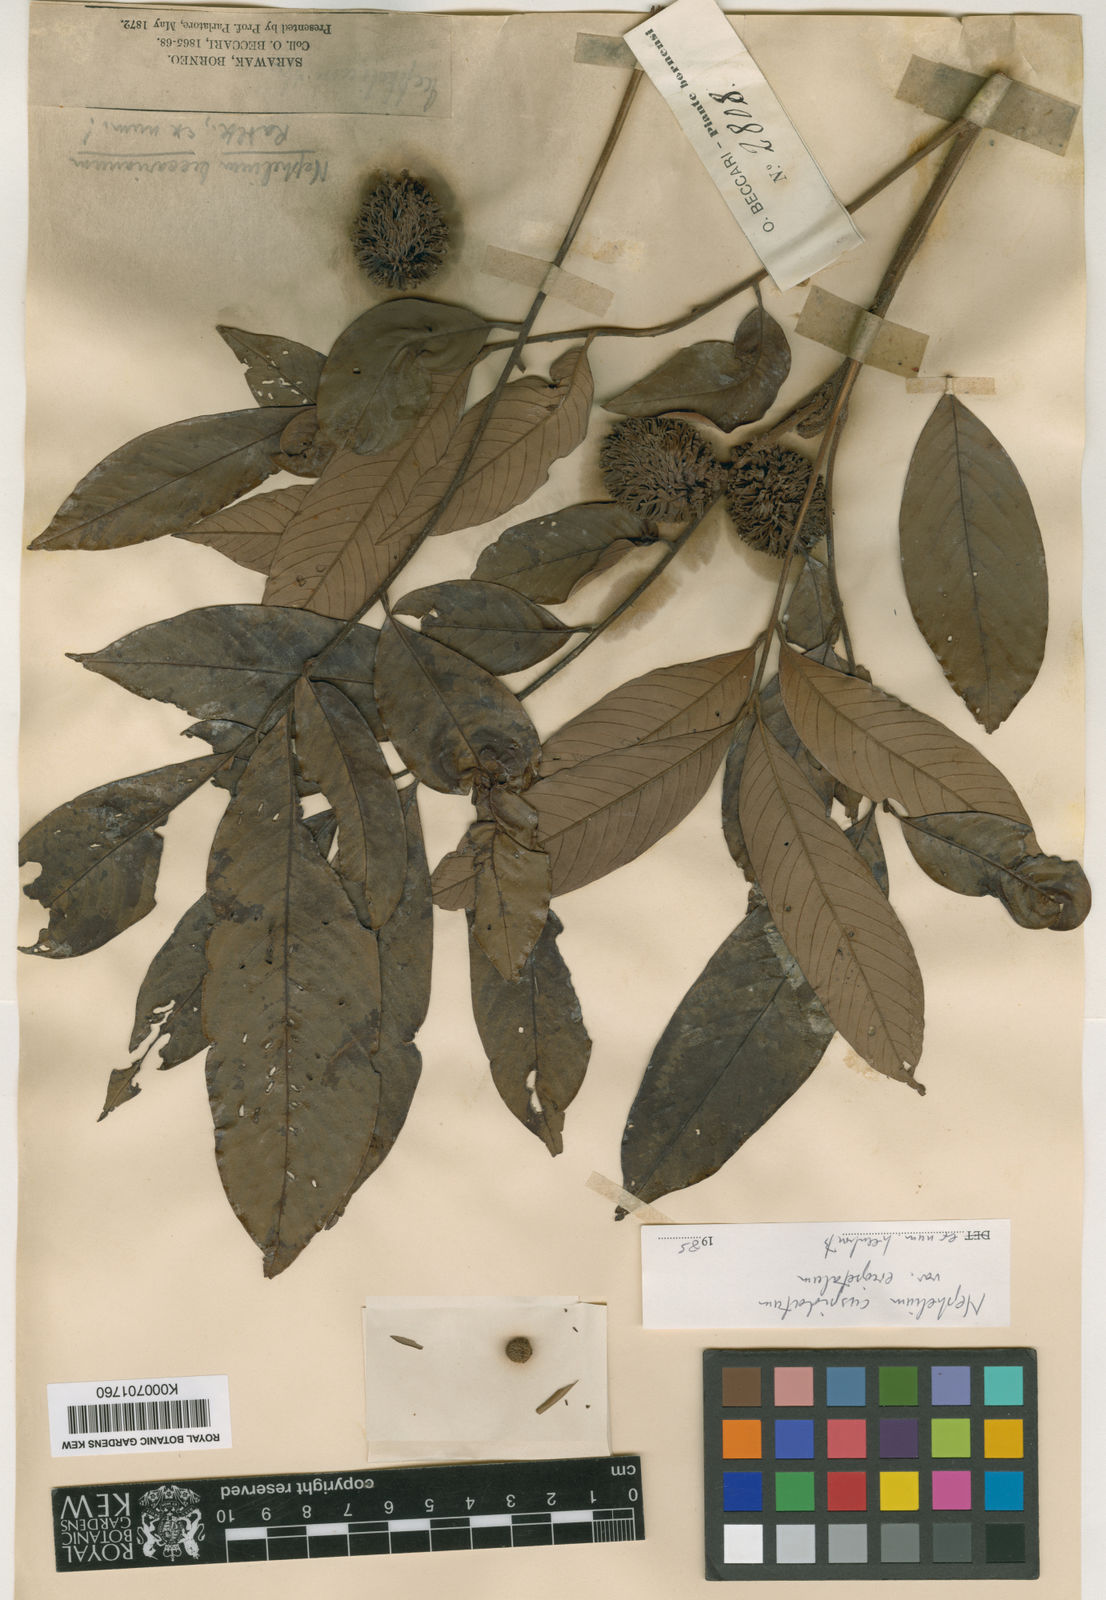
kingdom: Plantae
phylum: Tracheophyta
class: Magnoliopsida
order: Sapindales
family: Sapindaceae
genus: Nephelium
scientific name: Nephelium cuspidatum
